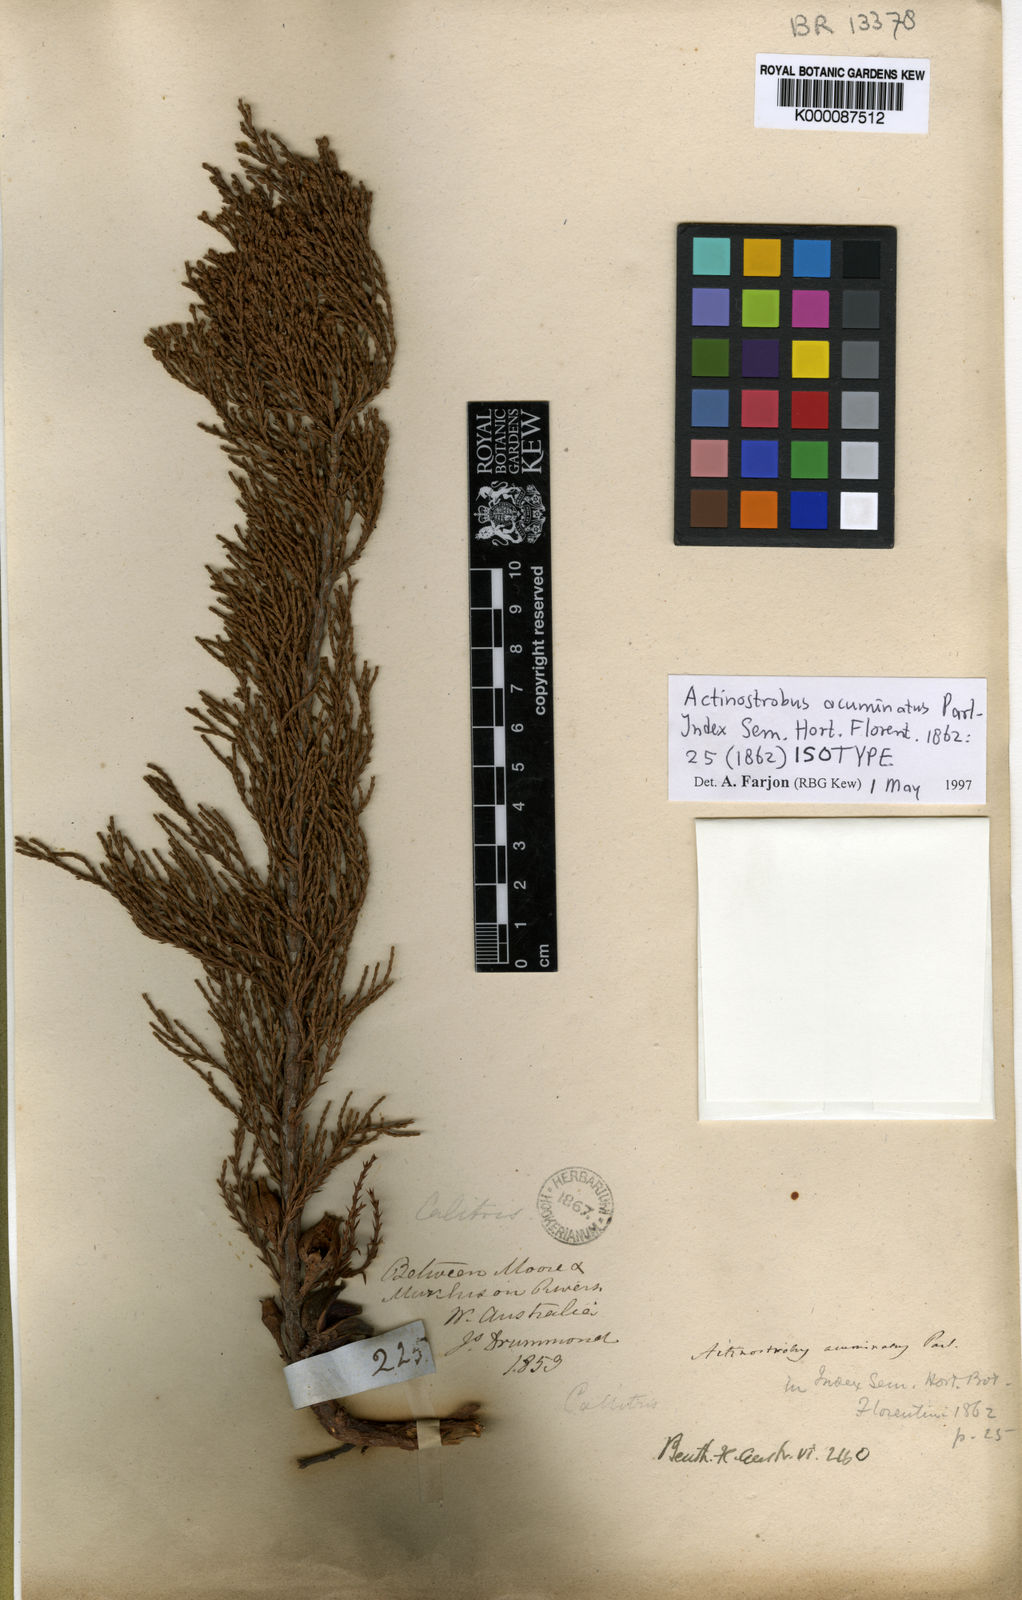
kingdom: Plantae
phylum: Tracheophyta
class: Pinopsida
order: Pinales
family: Cupressaceae
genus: Actinostrobus
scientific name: Actinostrobus acuminatus
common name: Dwarf-cypress
